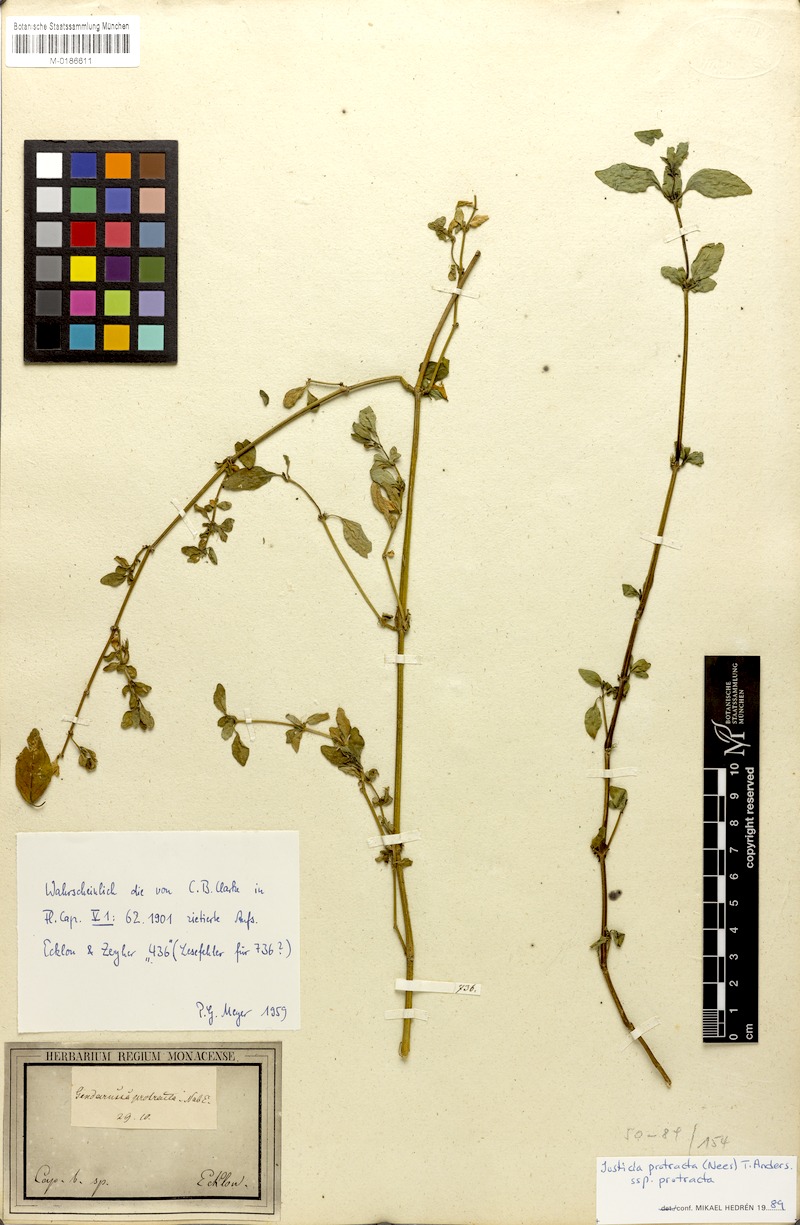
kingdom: Plantae
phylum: Tracheophyta
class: Magnoliopsida
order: Lamiales
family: Acanthaceae
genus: Justicia
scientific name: Justicia protracta
